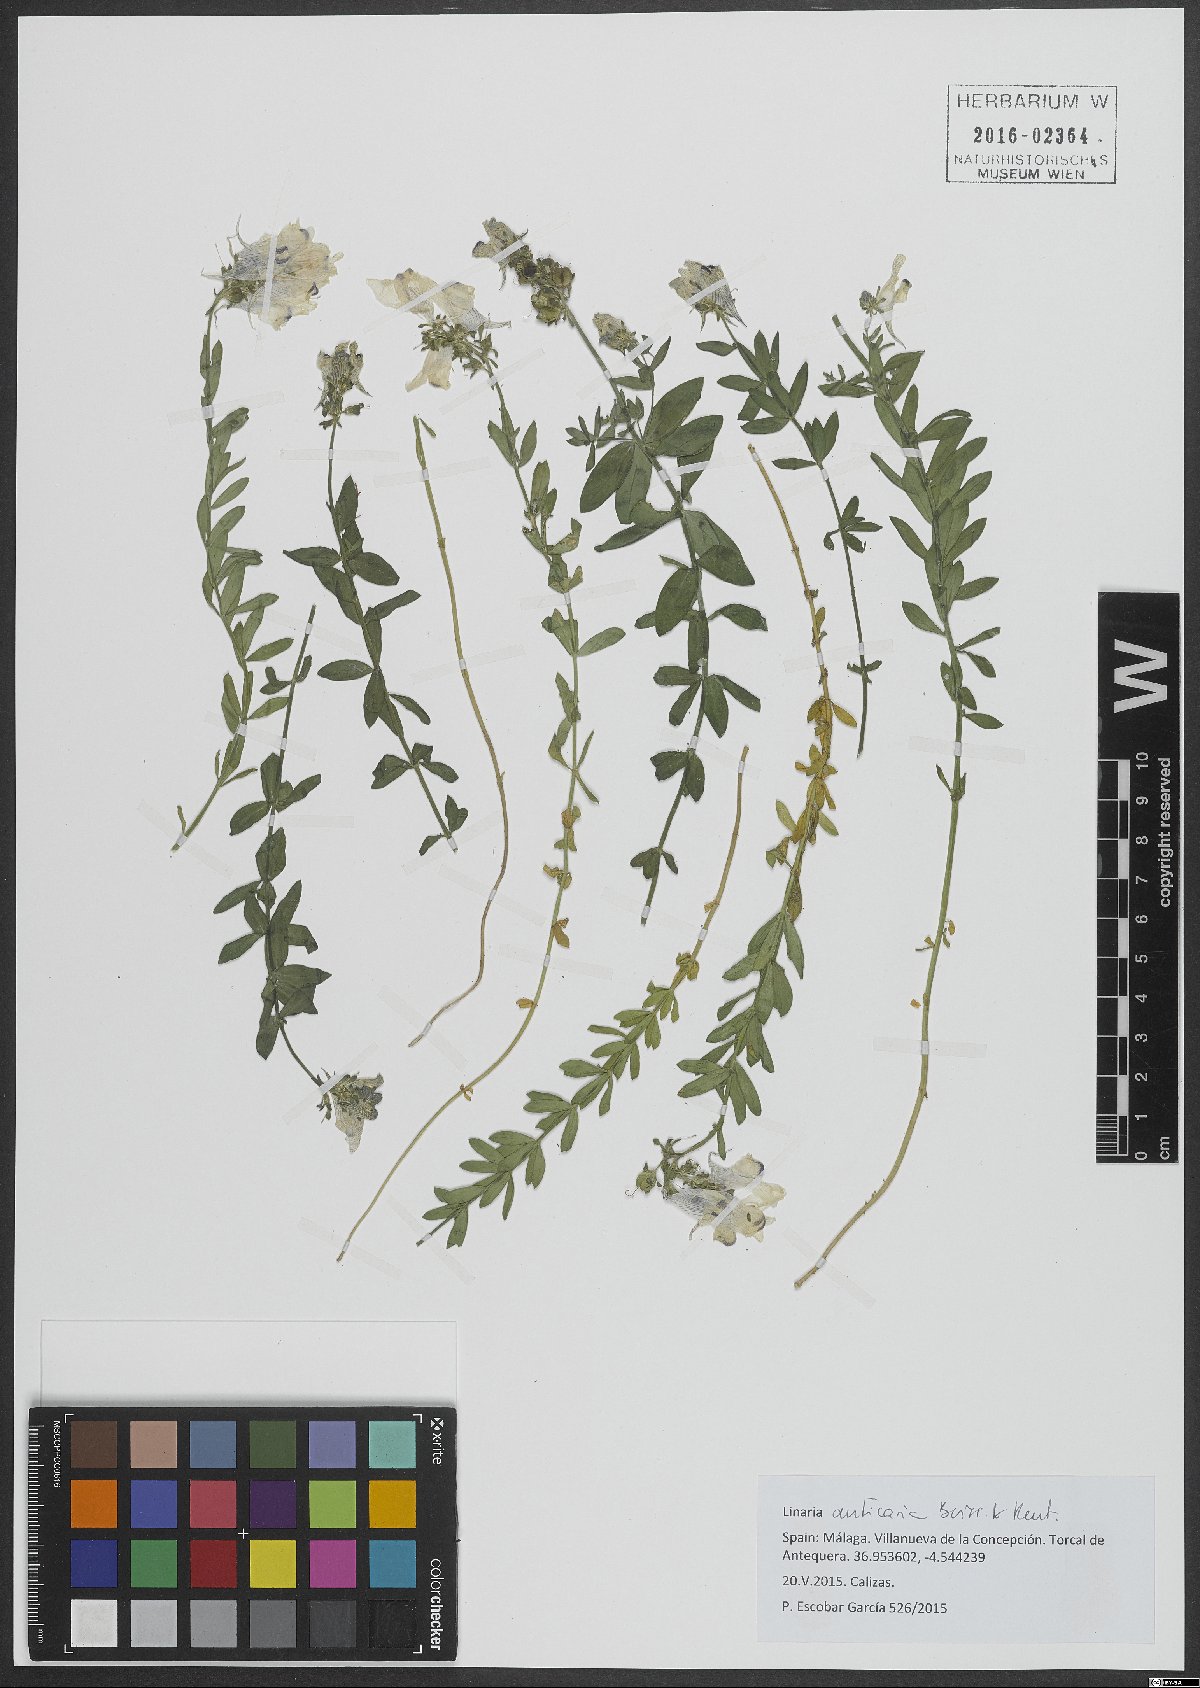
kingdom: Plantae
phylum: Tracheophyta
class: Magnoliopsida
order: Lamiales
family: Plantaginaceae
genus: Linaria
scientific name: Linaria verticillata
